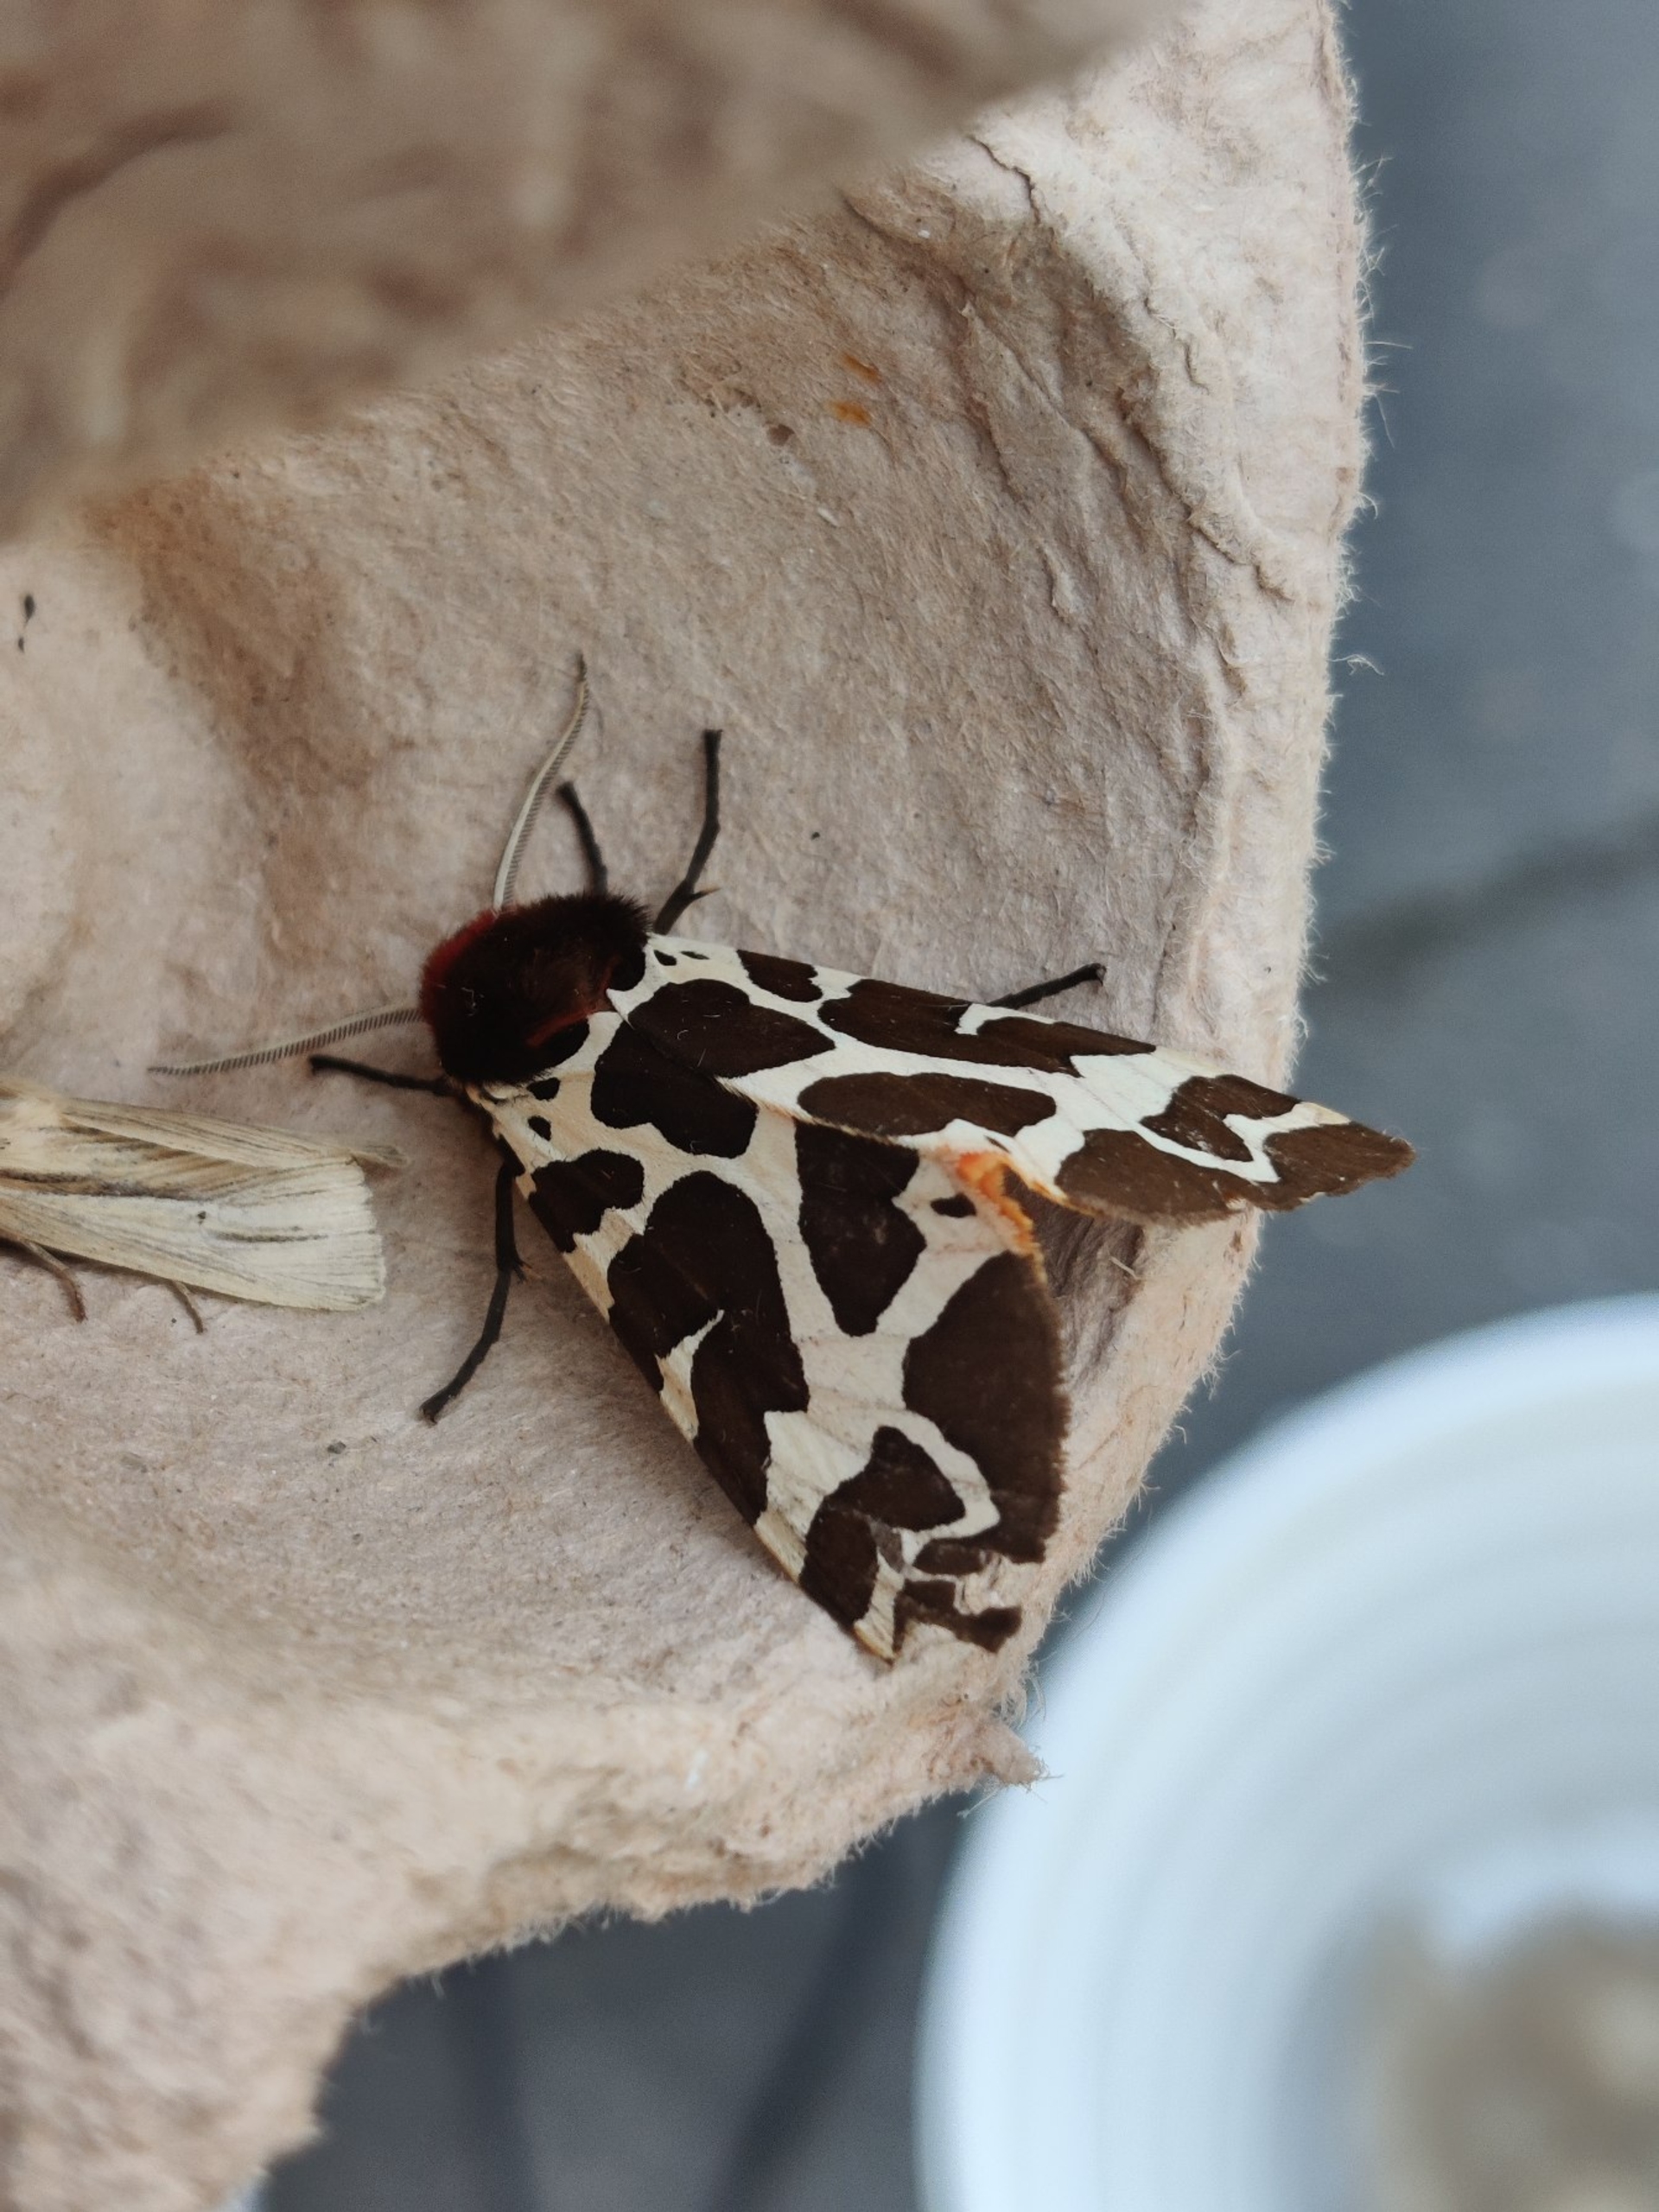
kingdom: Animalia
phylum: Arthropoda
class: Insecta
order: Lepidoptera
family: Erebidae
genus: Arctia
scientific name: Arctia caja
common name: Brun bjørn
